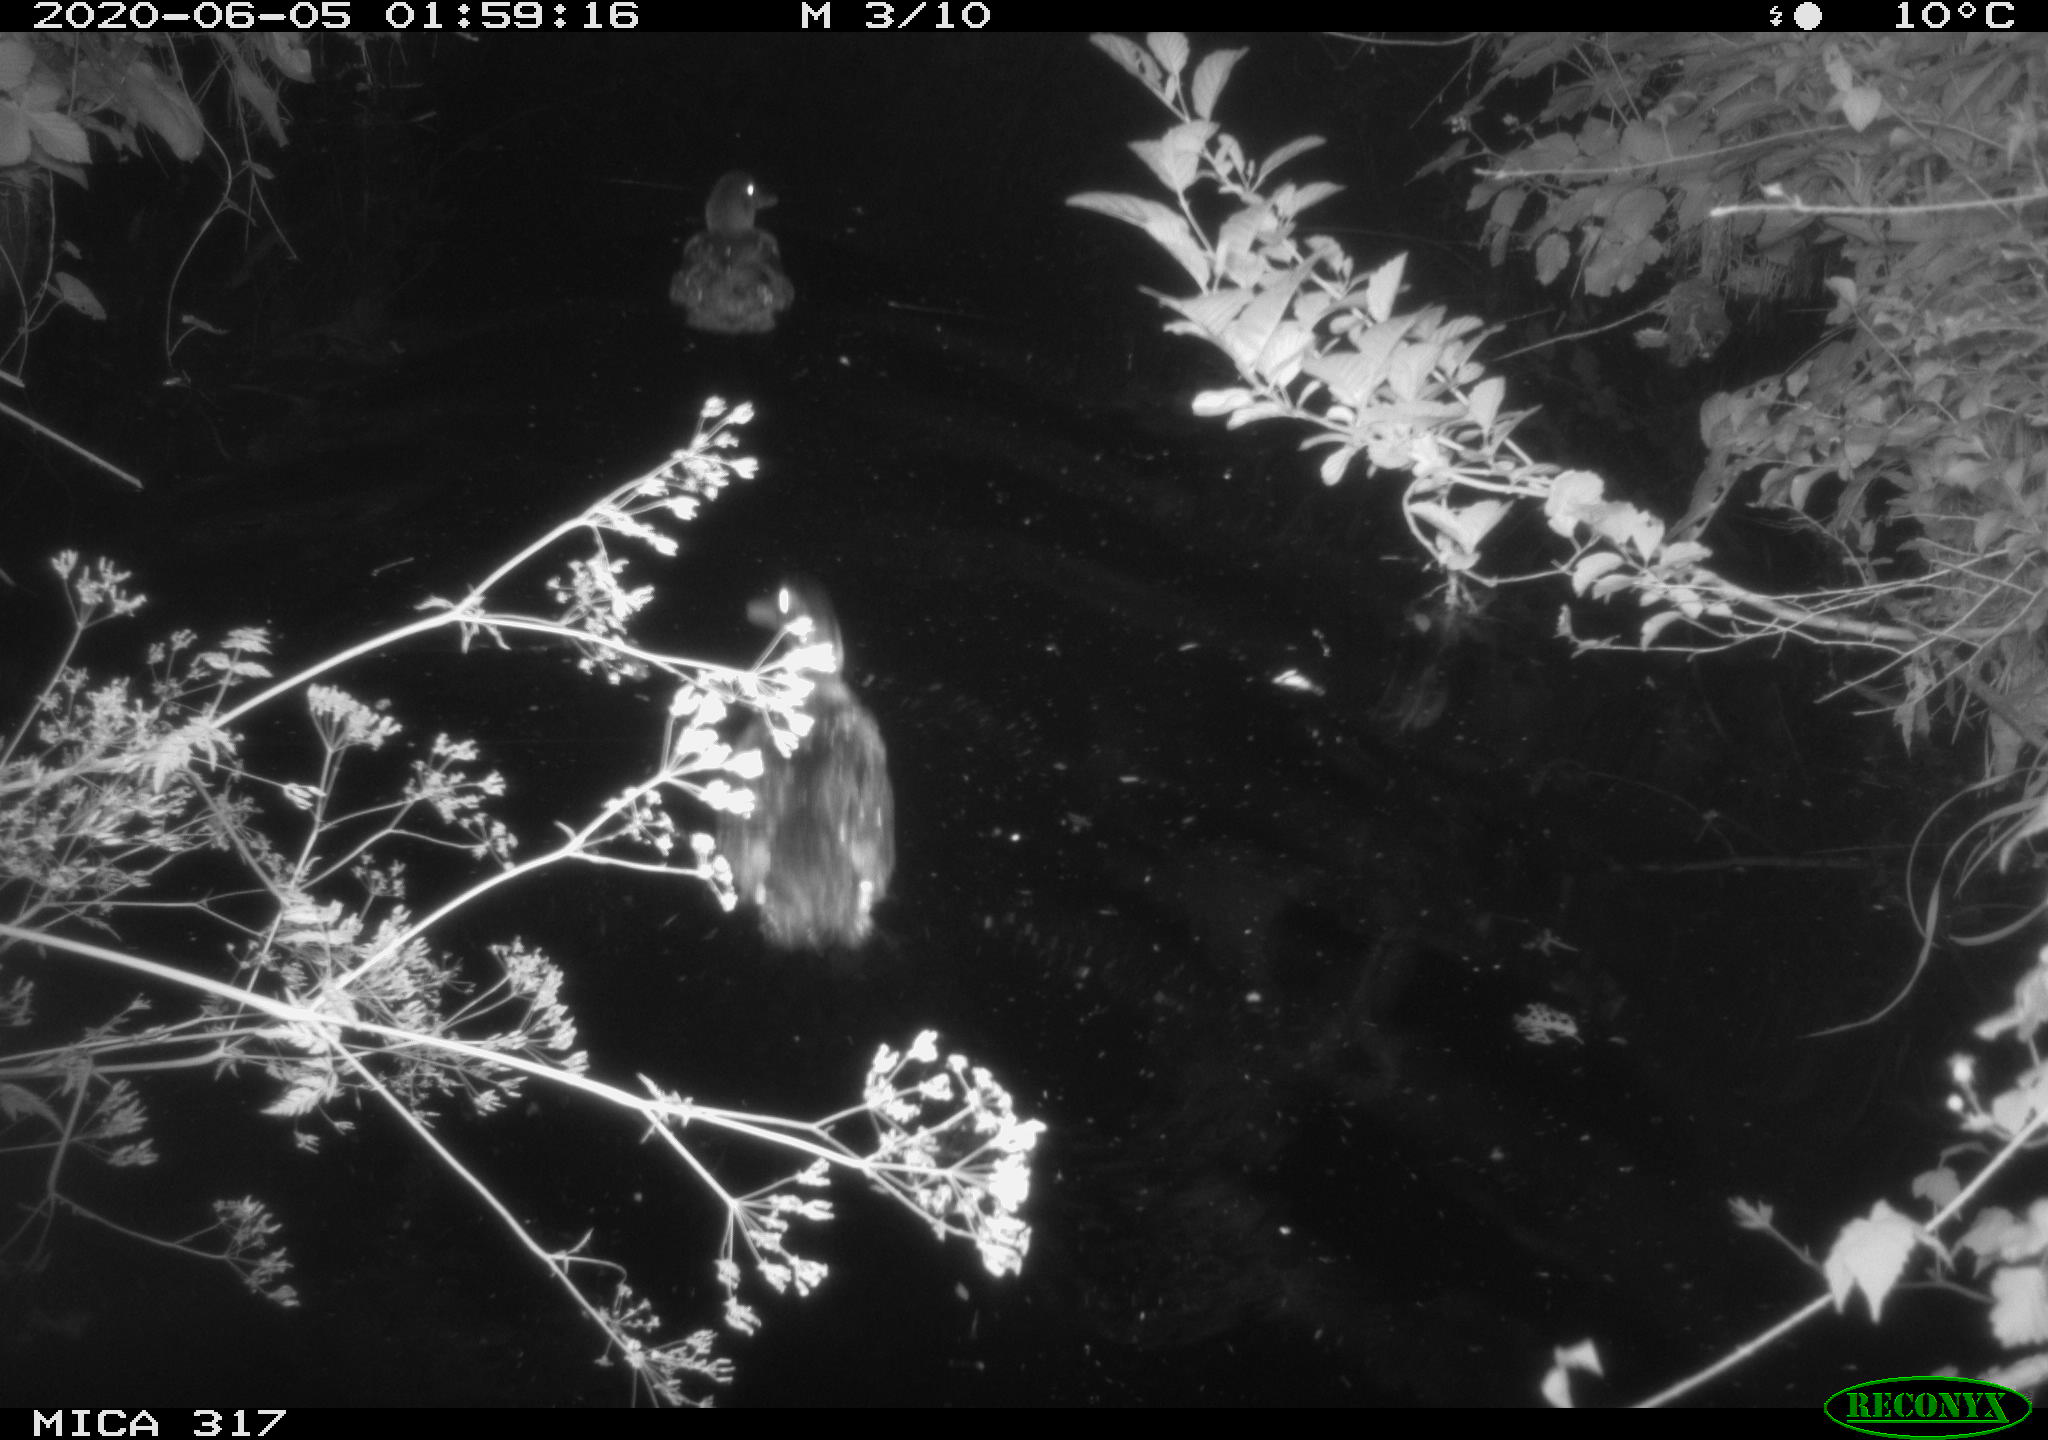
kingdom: Animalia
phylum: Chordata
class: Aves
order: Anseriformes
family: Anatidae
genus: Anas
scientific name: Anas platyrhynchos
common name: Mallard
